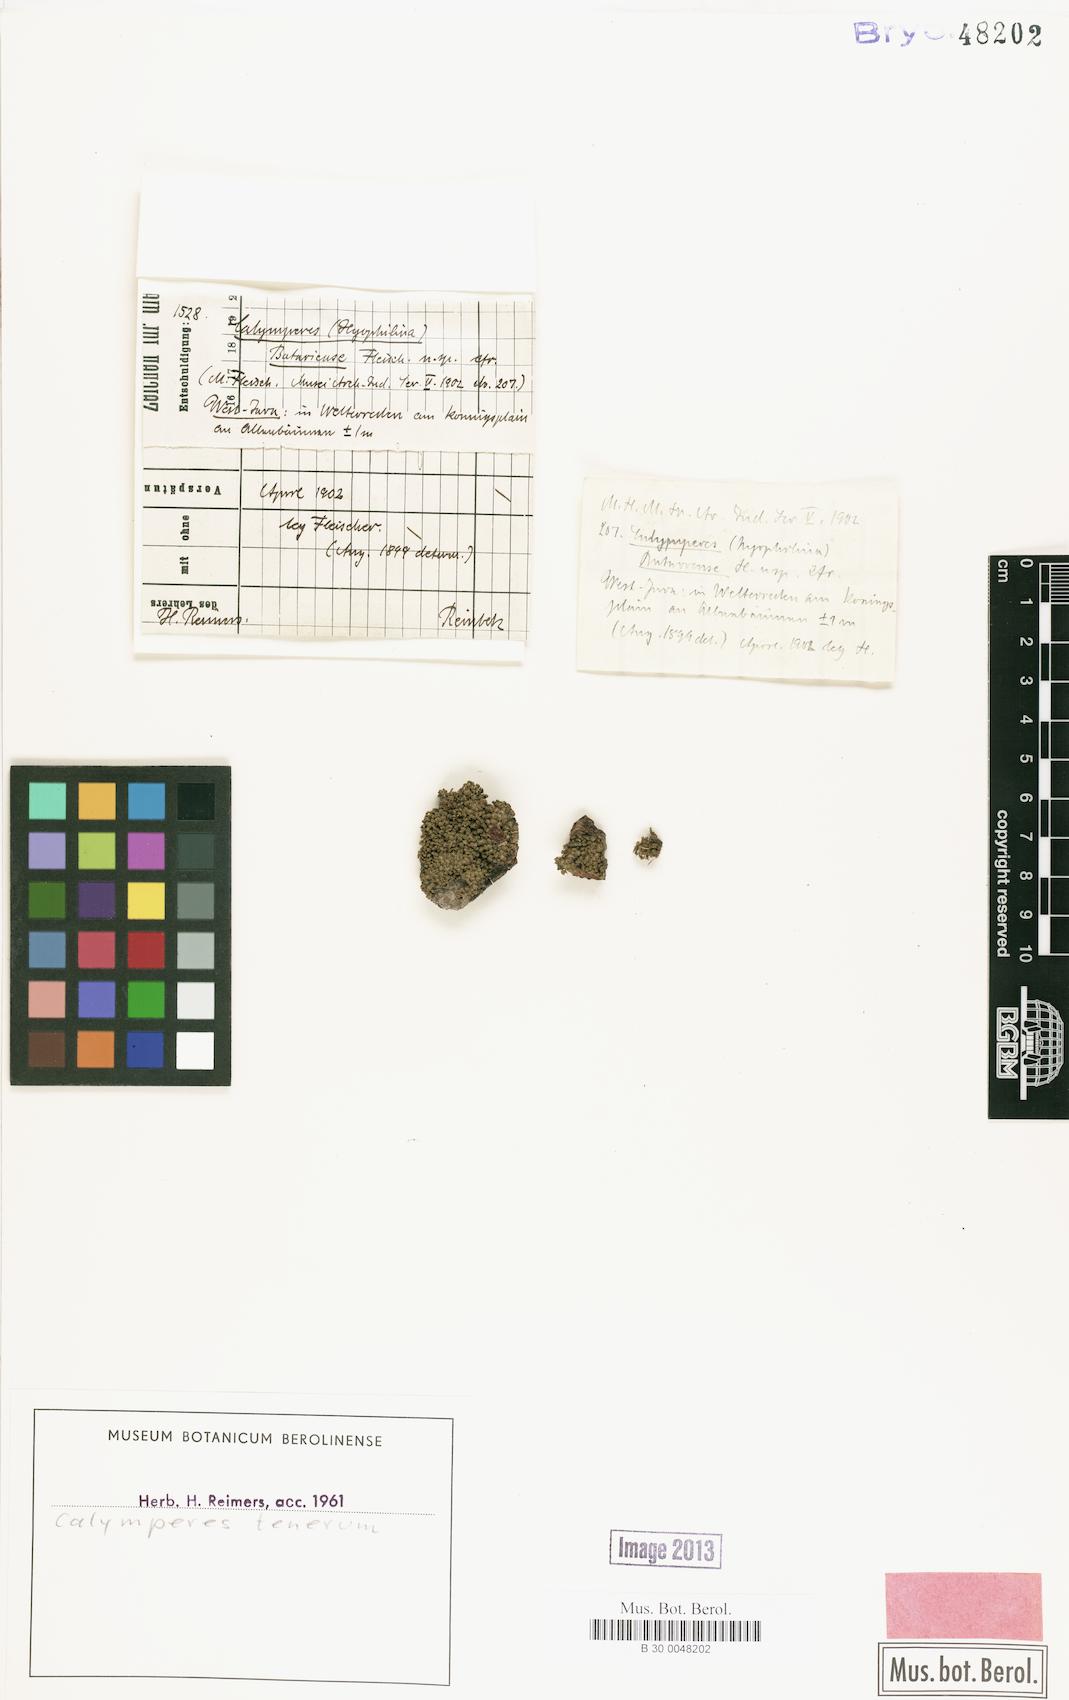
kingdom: Plantae
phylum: Bryophyta
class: Bryopsida
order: Dicranales
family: Calymperaceae
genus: Calymperes
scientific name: Calymperes tenerum
